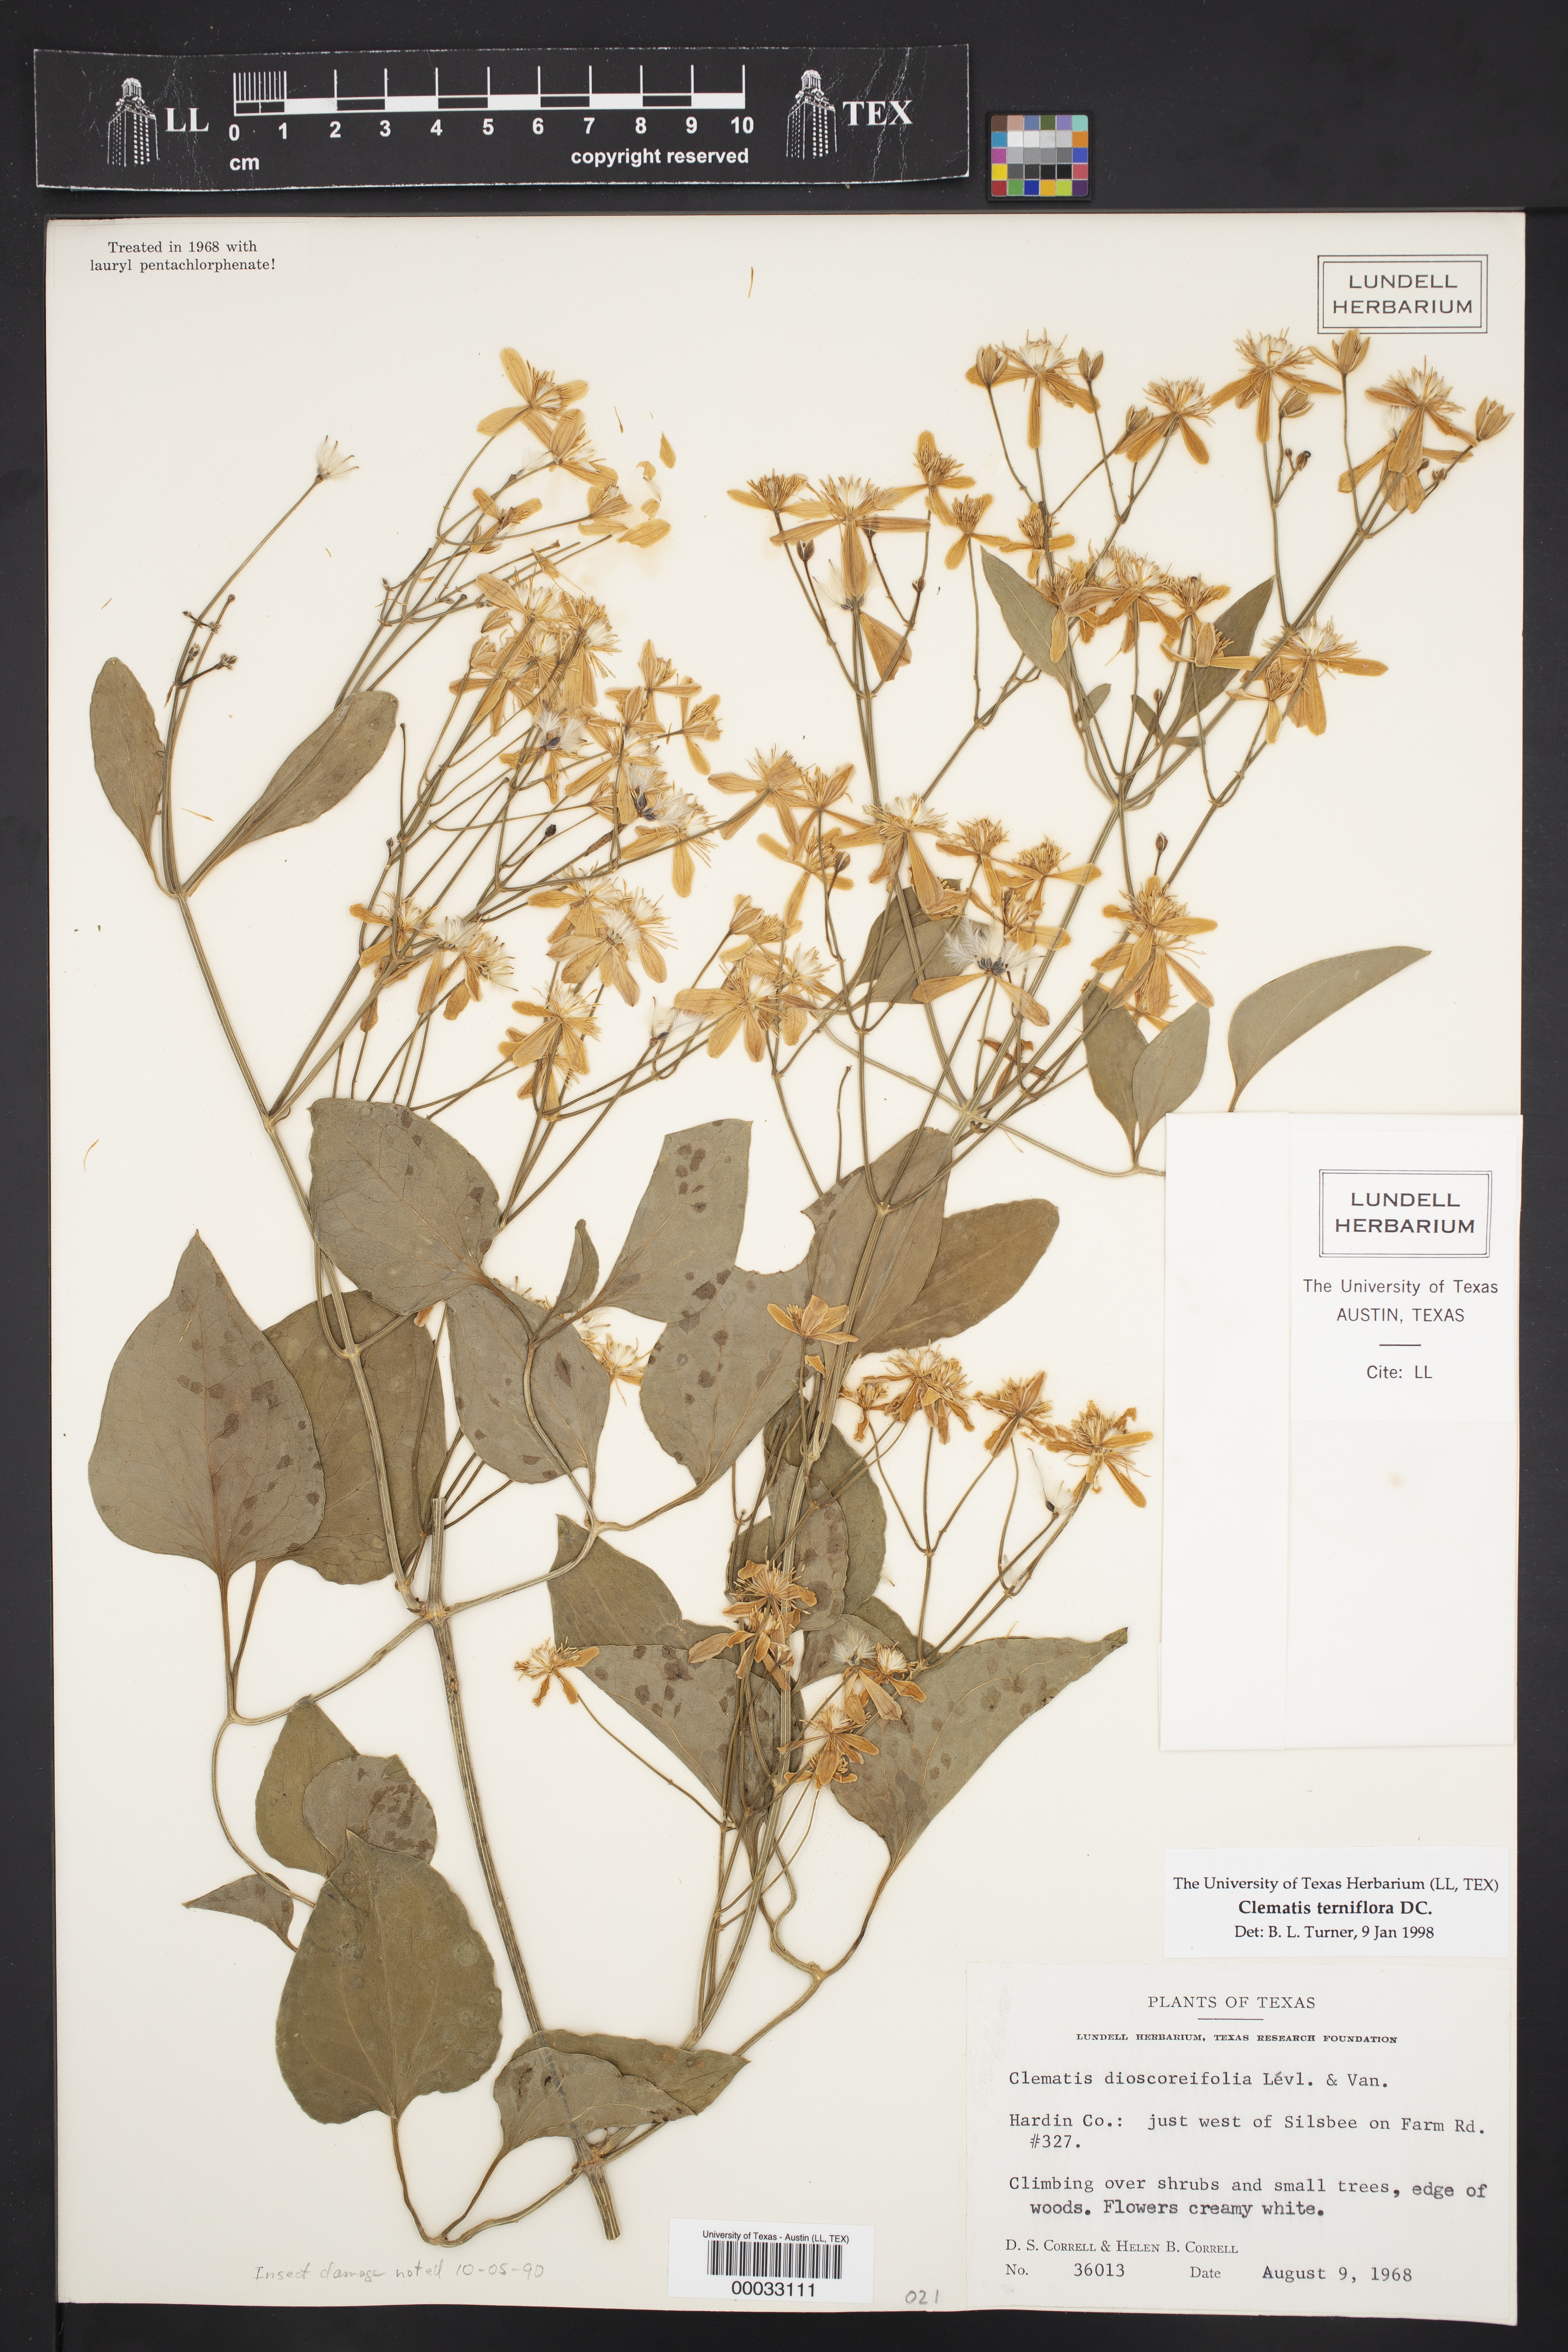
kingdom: Plantae
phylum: Tracheophyta
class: Magnoliopsida
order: Ranunculales
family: Ranunculaceae
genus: Clematis
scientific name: Clematis terniflora
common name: Sweet autumn clematis
